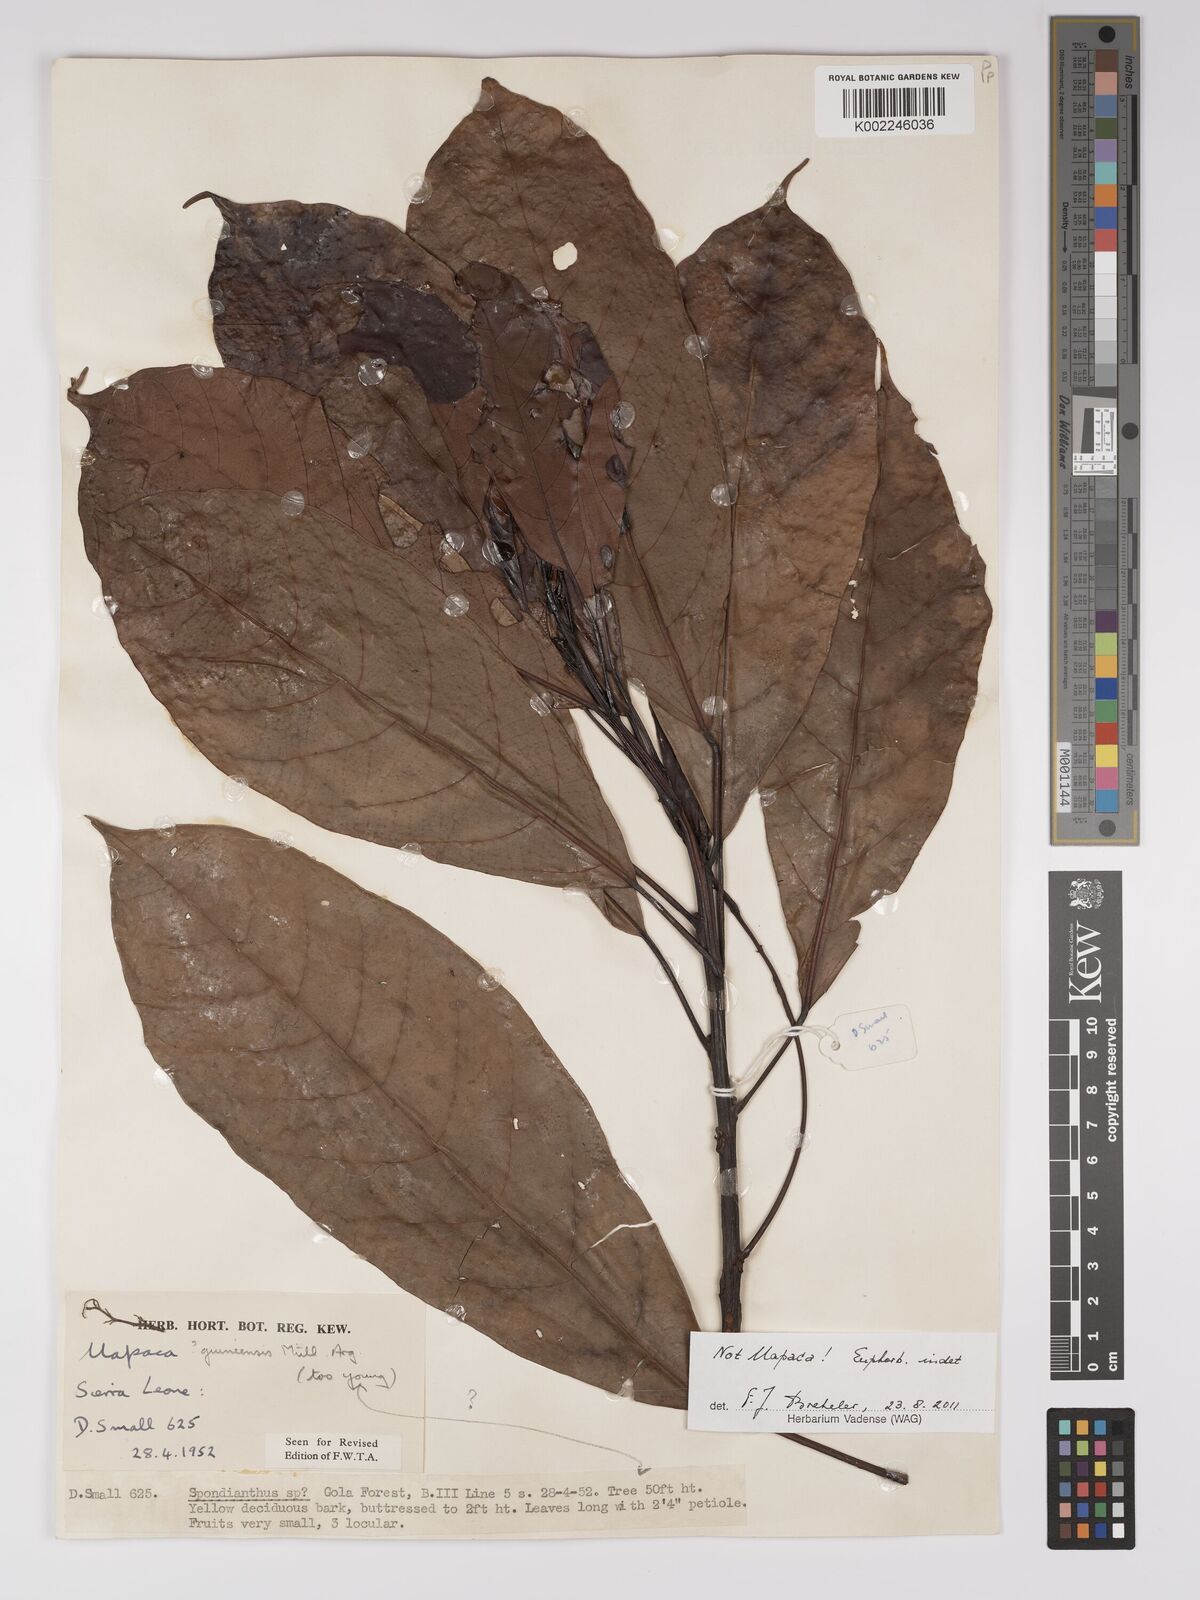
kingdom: Plantae
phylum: Tracheophyta
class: Magnoliopsida
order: Malpighiales
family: Euphorbiaceae
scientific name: Euphorbiaceae
